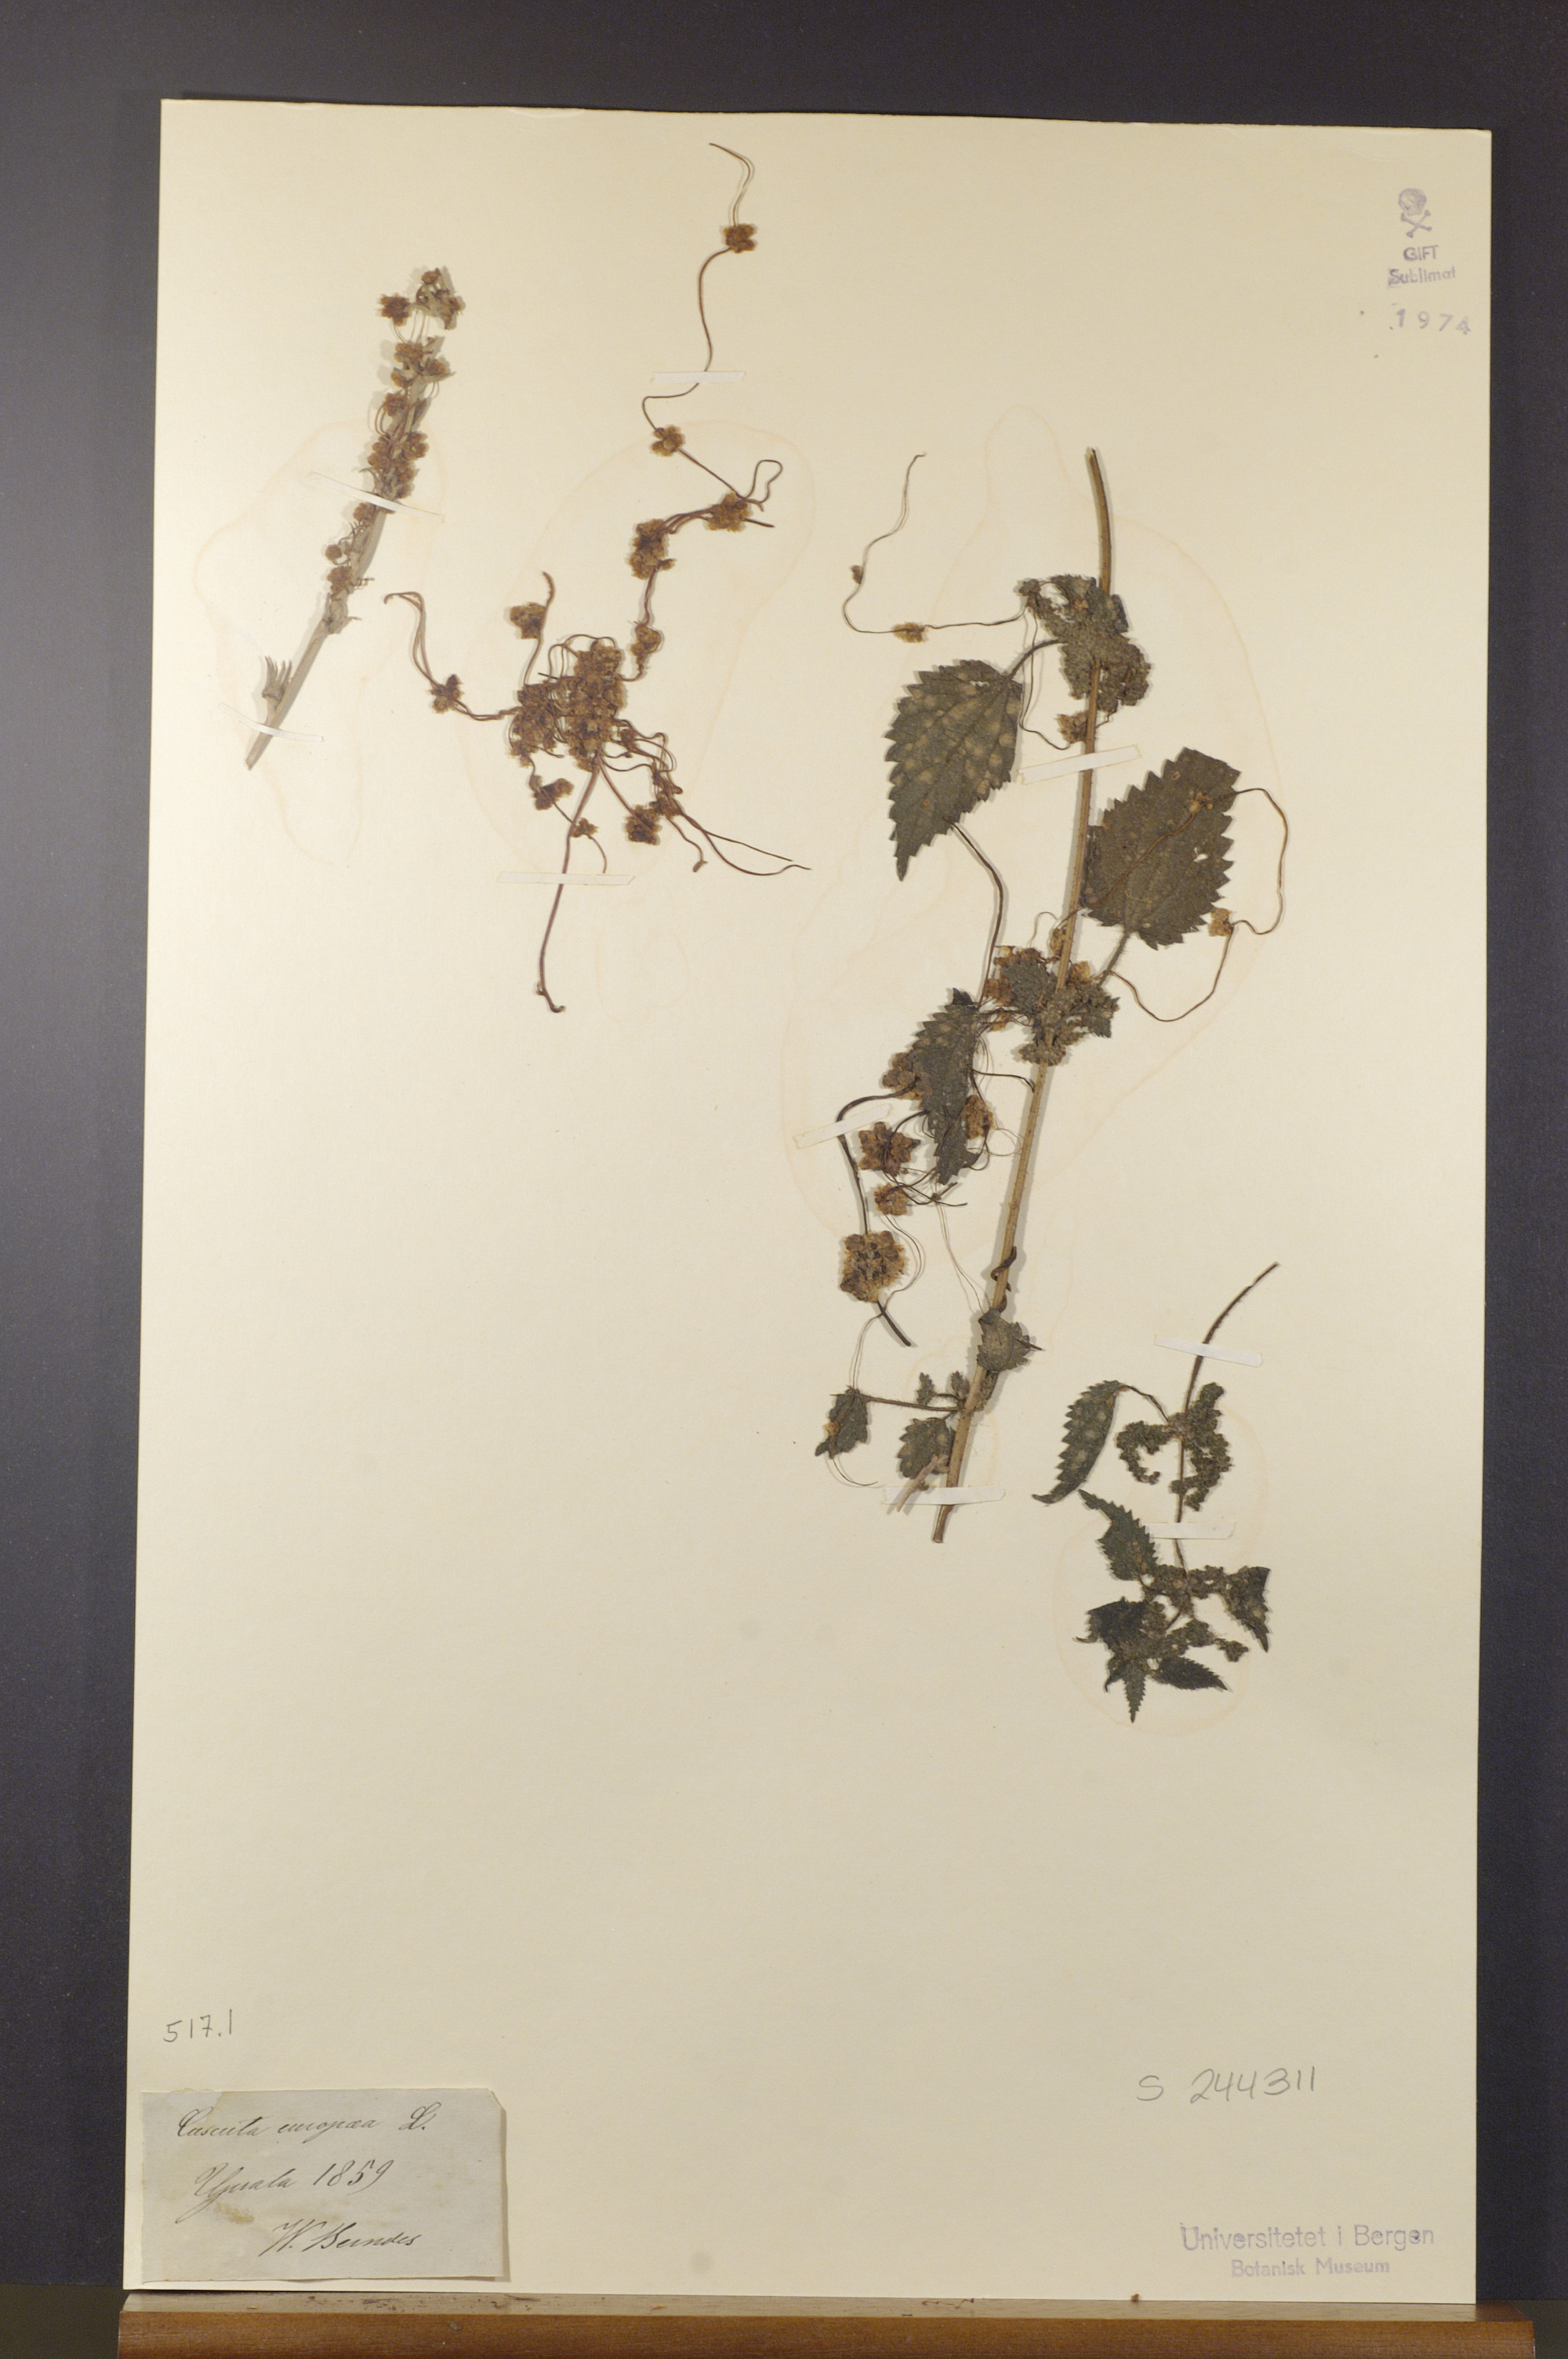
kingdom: Plantae
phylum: Tracheophyta
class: Magnoliopsida
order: Solanales
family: Convolvulaceae
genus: Cuscuta
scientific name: Cuscuta europaea
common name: Greater dodder
